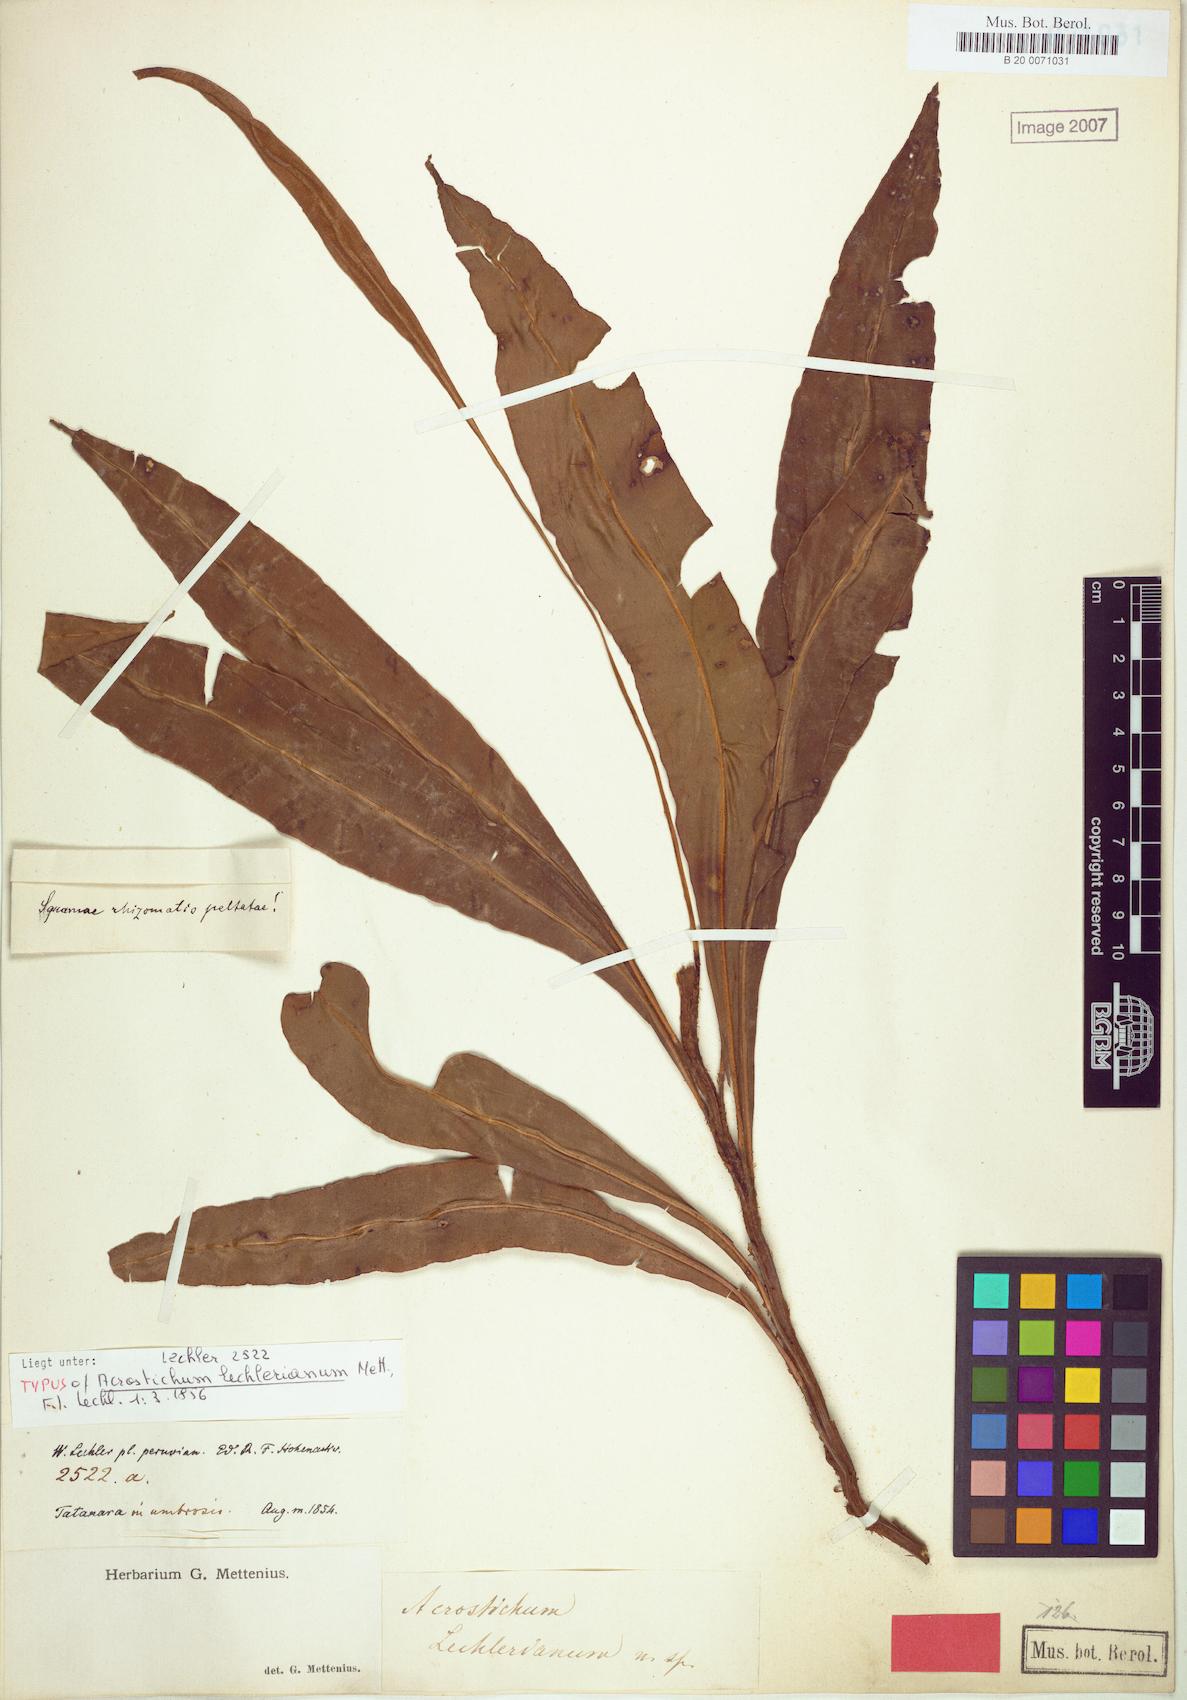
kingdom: Plantae
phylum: Tracheophyta
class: Polypodiopsida
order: Polypodiales
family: Dryopteridaceae
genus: Elaphoglossum
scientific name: Elaphoglossum lechlerianum
